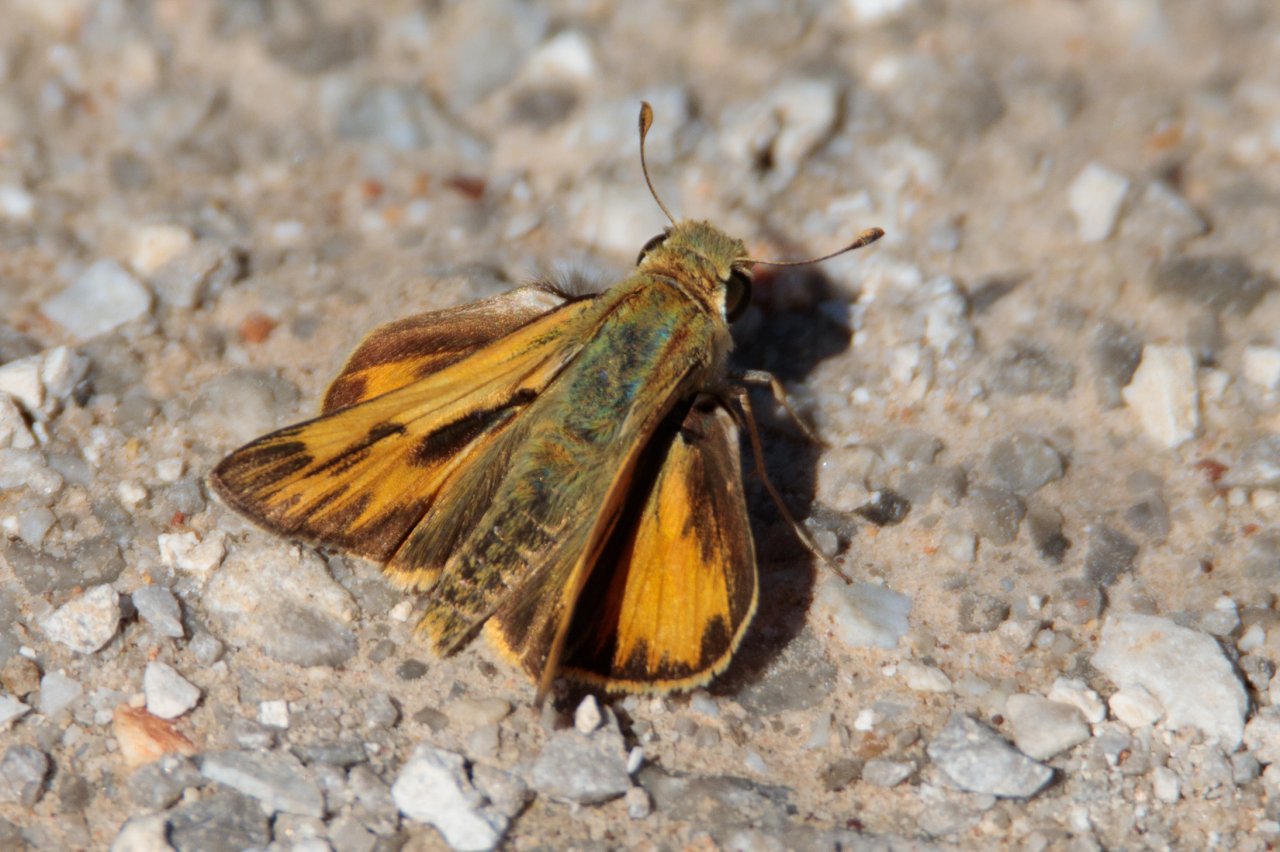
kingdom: Animalia
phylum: Arthropoda
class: Insecta
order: Lepidoptera
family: Hesperiidae
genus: Hylephila
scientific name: Hylephila phyleus
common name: Fiery Skipper
